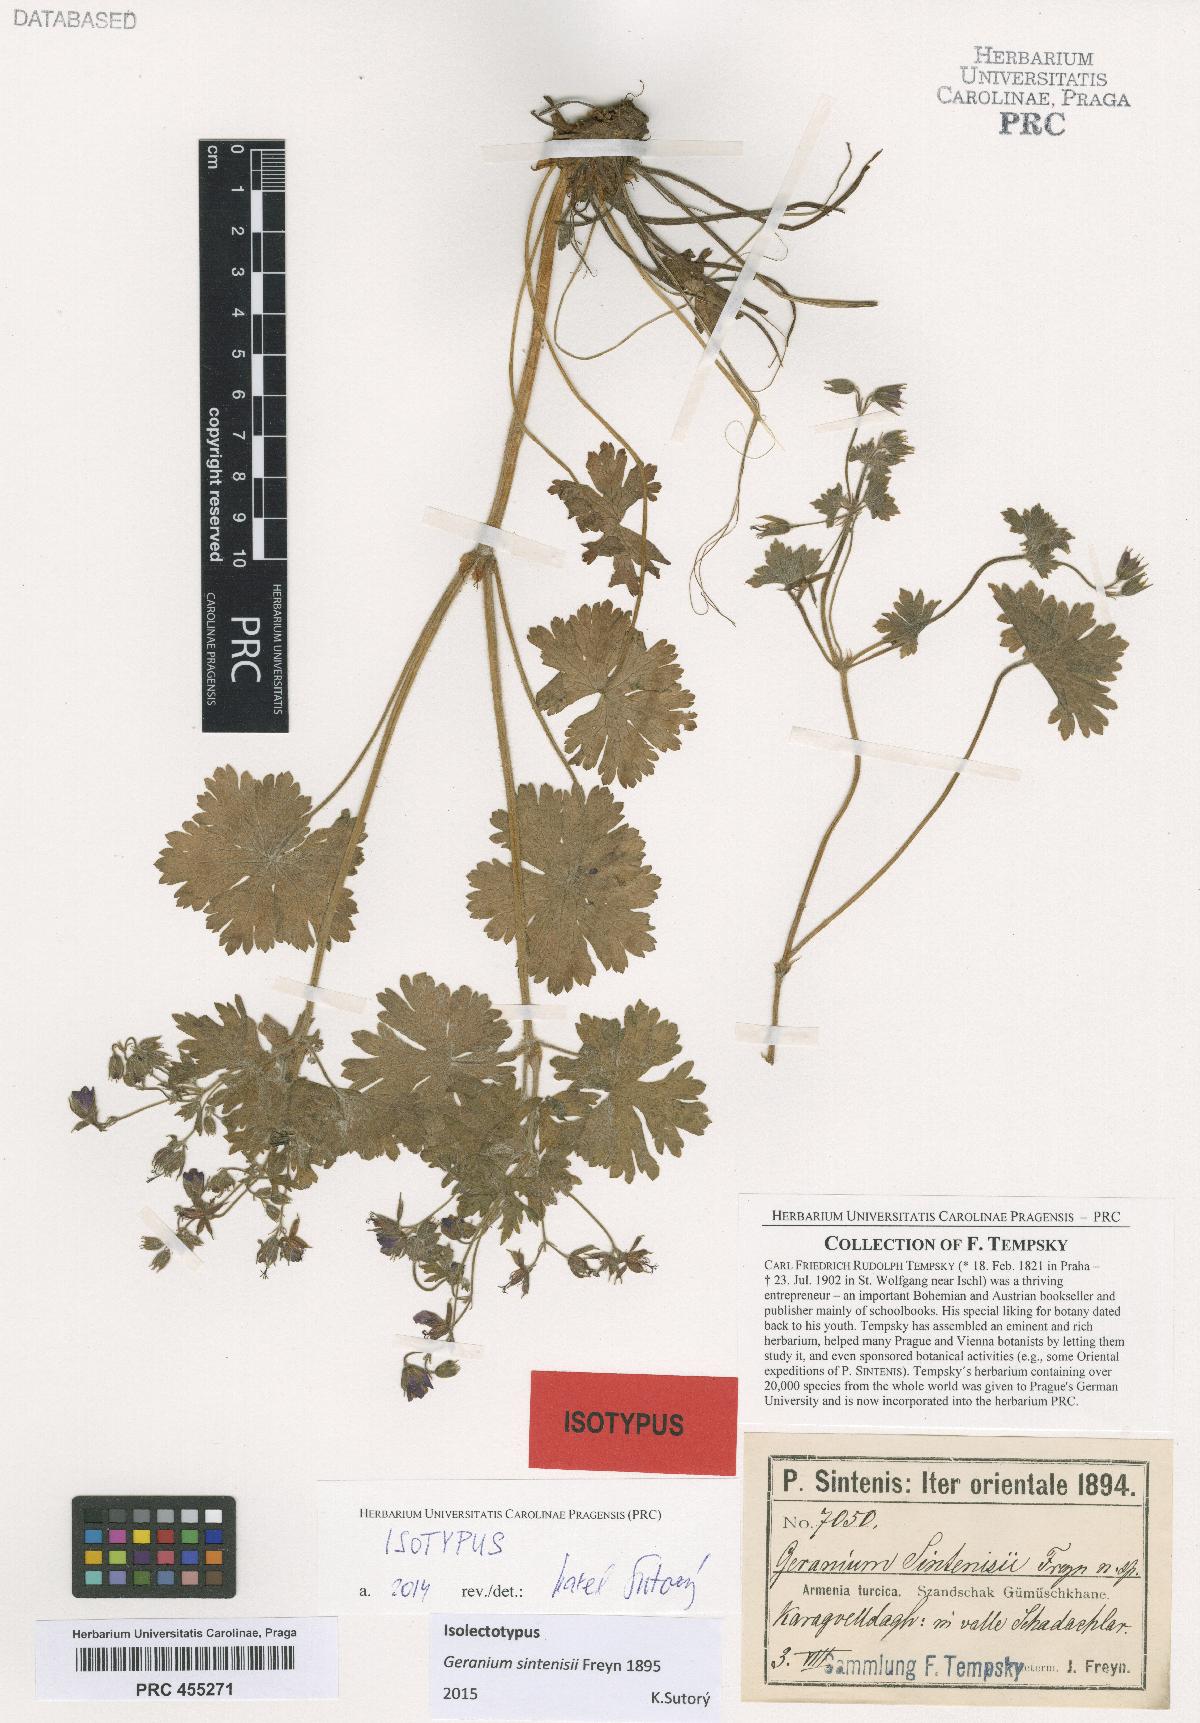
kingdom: Plantae
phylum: Tracheophyta
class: Magnoliopsida
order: Geraniales
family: Geraniaceae
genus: Geranium
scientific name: Geranium sintenisii
